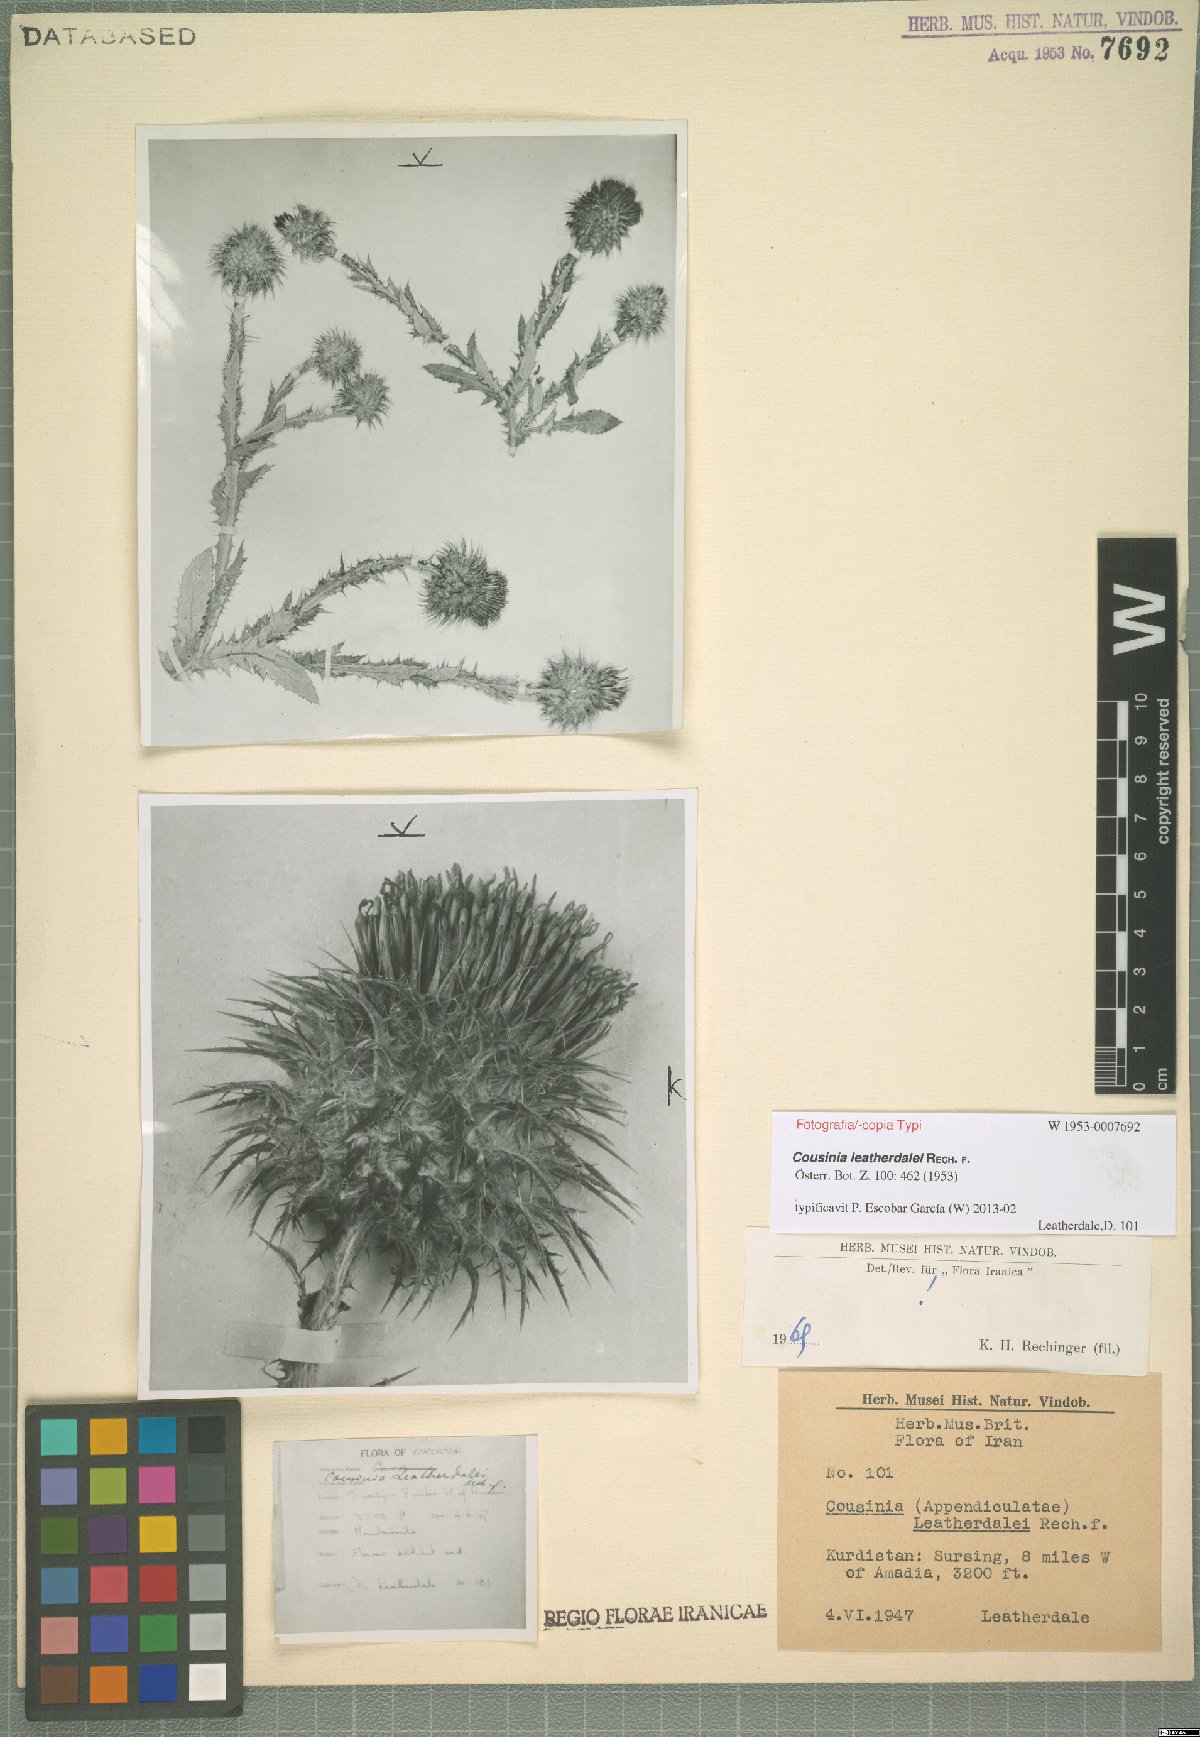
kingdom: Plantae
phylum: Tracheophyta
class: Magnoliopsida
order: Asterales
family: Asteraceae
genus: Cousinia
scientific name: Cousinia odontolepis
